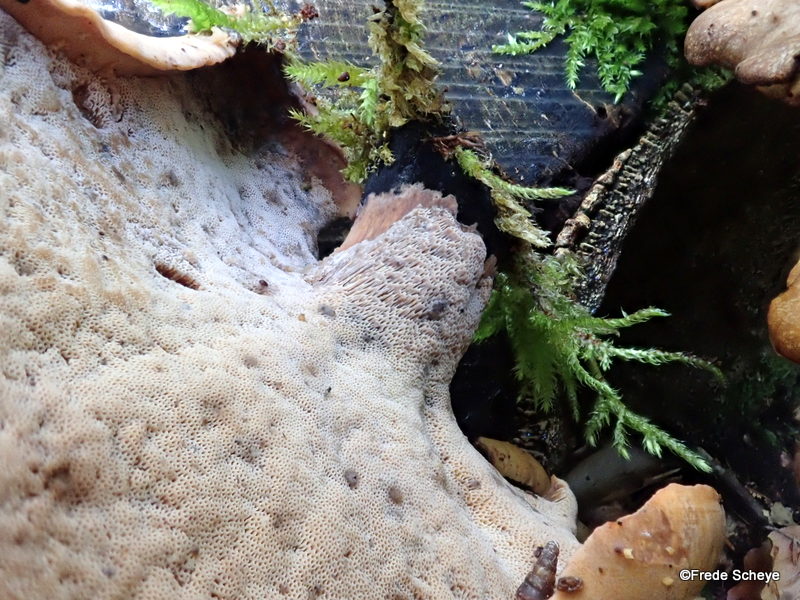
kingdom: Fungi
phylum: Basidiomycota
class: Agaricomycetes
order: Polyporales
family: Polyporaceae
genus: Cerioporus
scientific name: Cerioporus varius
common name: foranderlig stilkporesvamp
